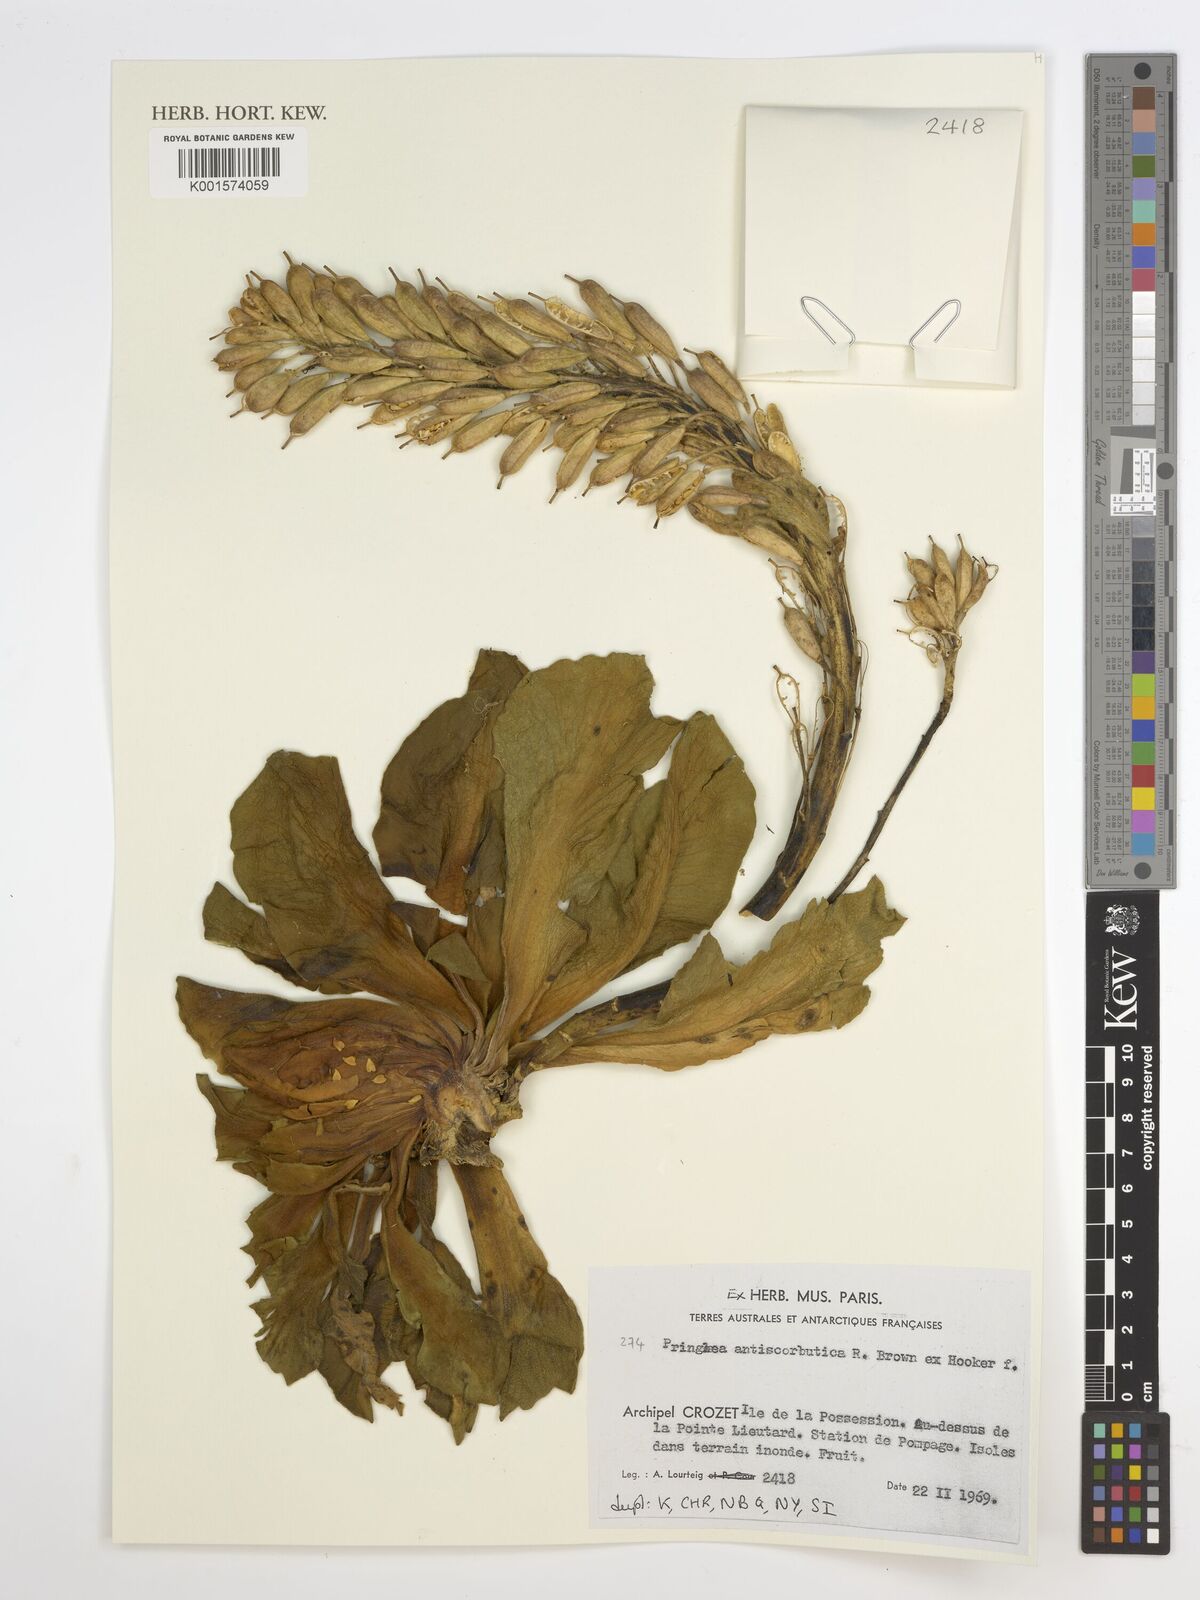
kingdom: Plantae
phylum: Tracheophyta
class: Magnoliopsida
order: Brassicales
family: Brassicaceae
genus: Pringlea
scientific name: Pringlea antiscorbutica
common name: Kerguelen-cabbage
